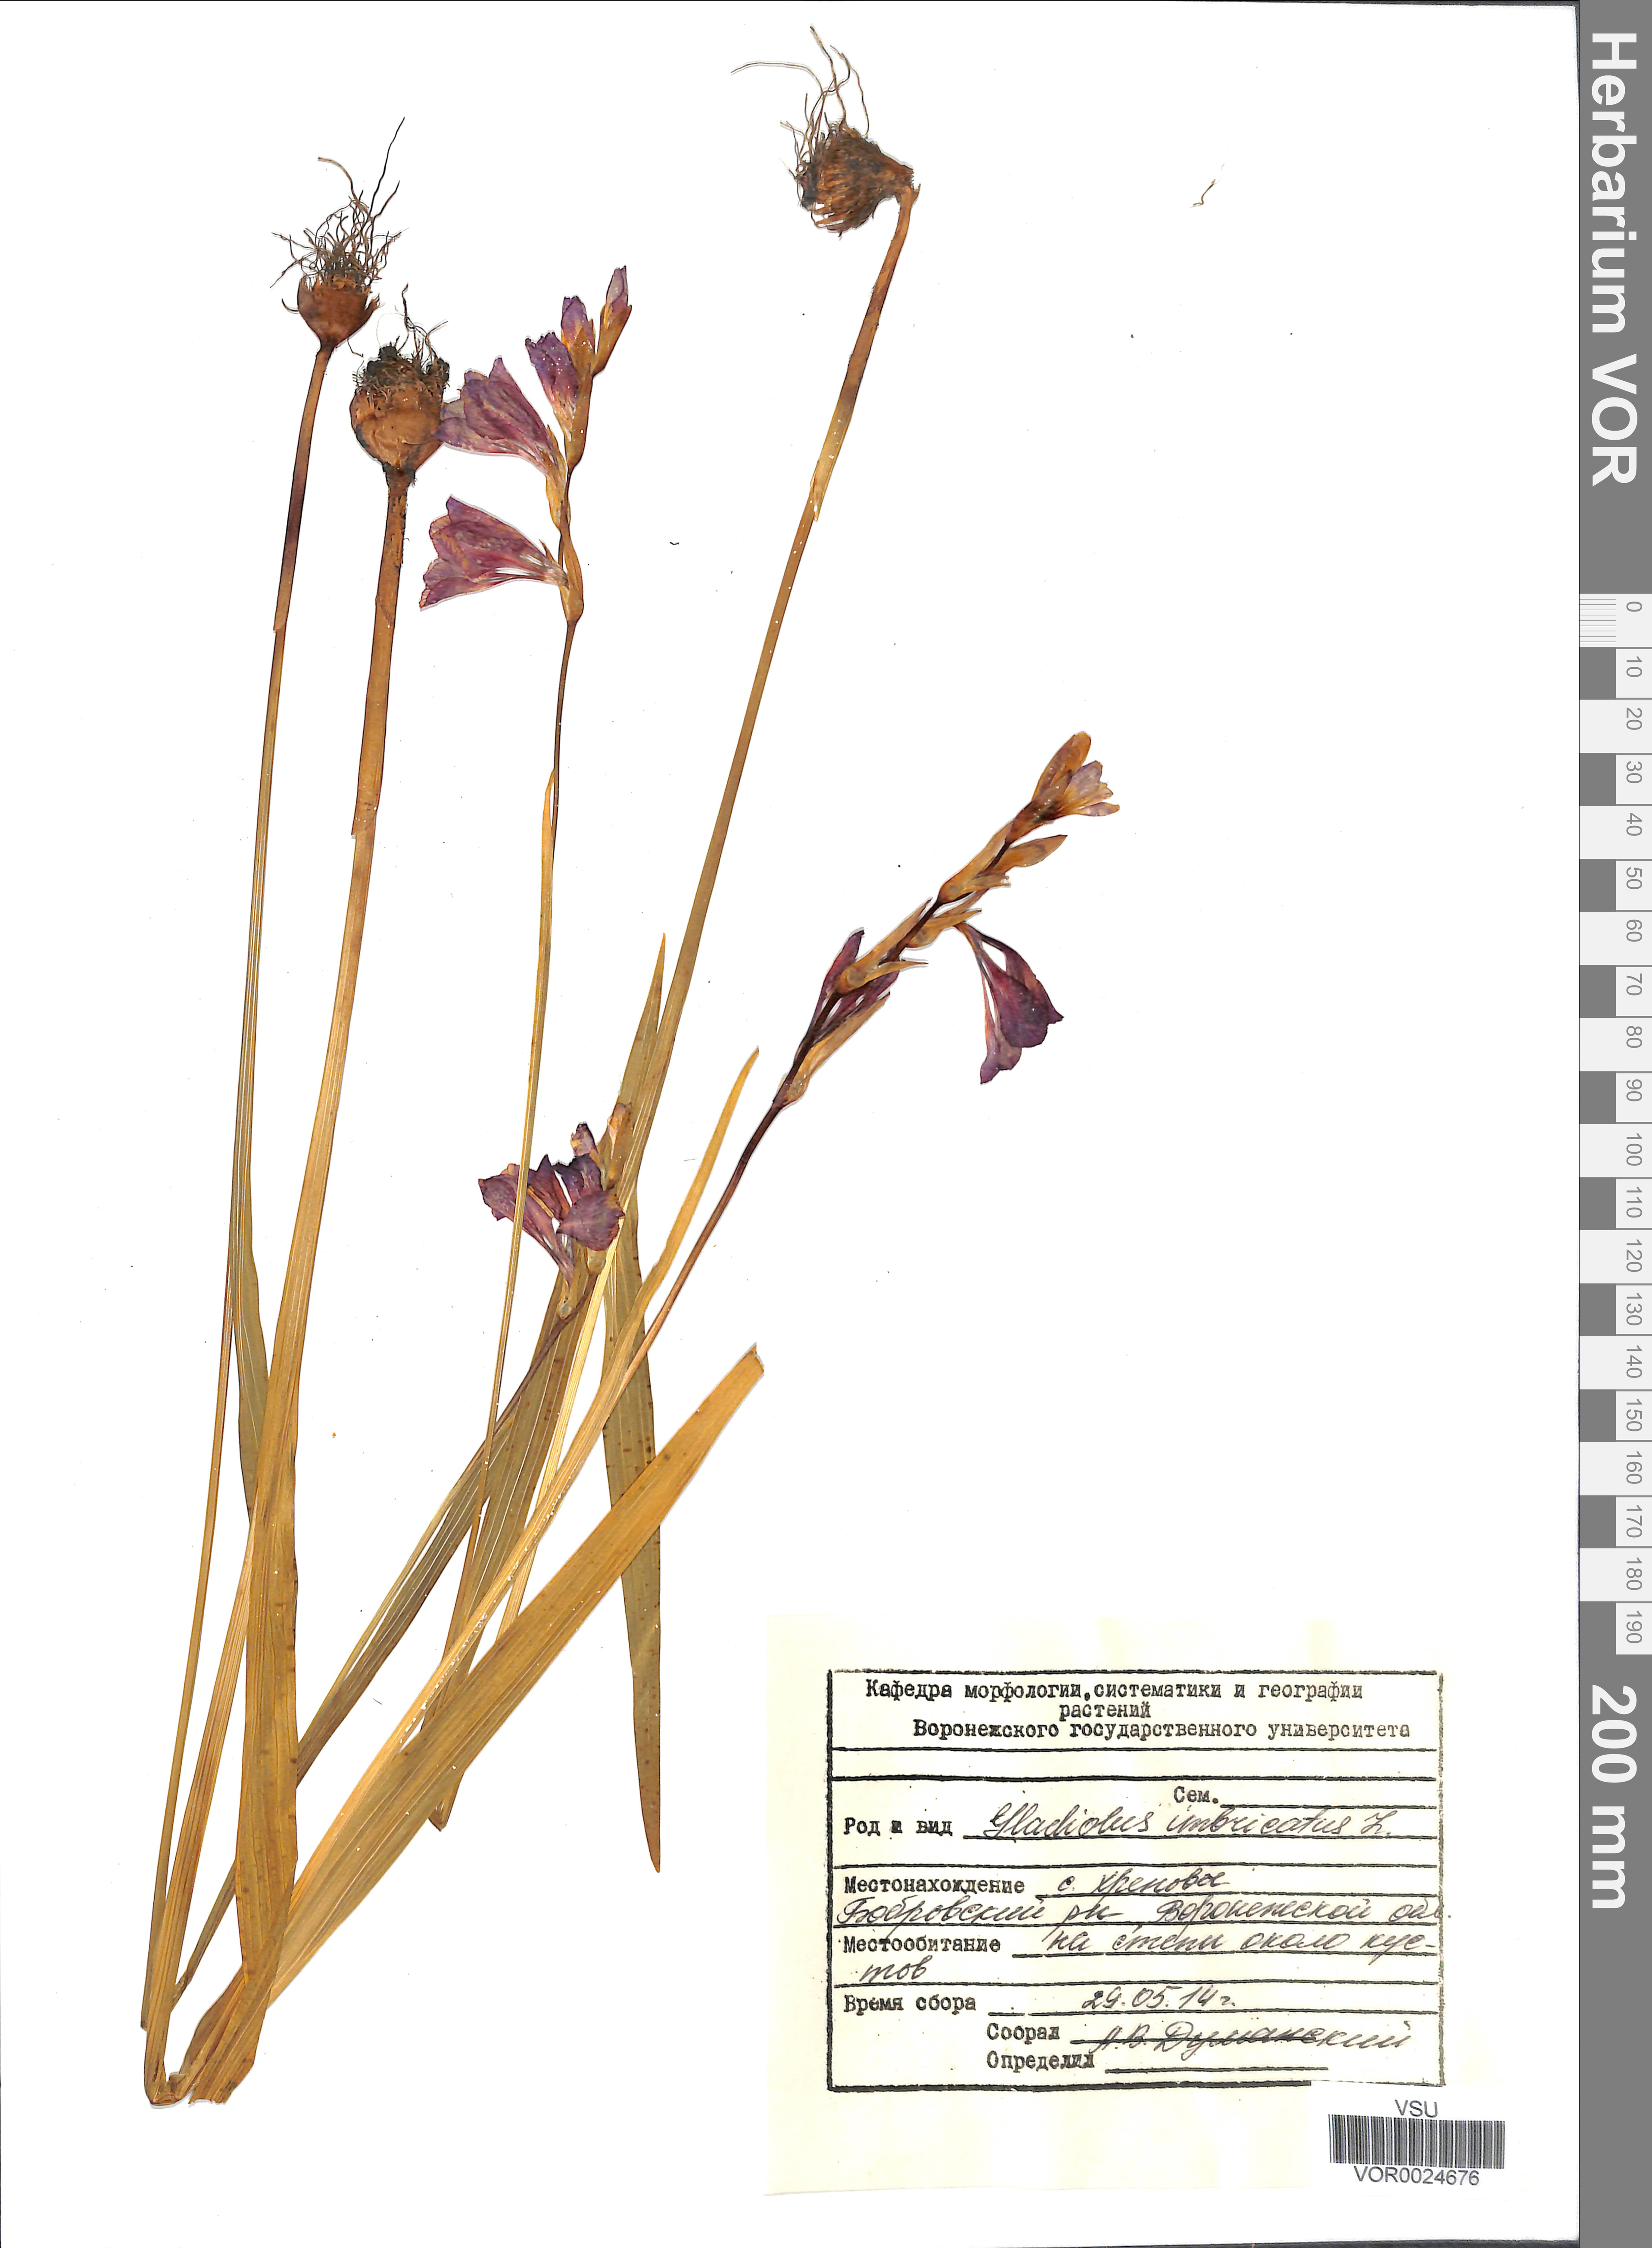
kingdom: Plantae
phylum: Tracheophyta
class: Liliopsida
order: Asparagales
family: Iridaceae
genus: Gladiolus
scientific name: Gladiolus tenuis
